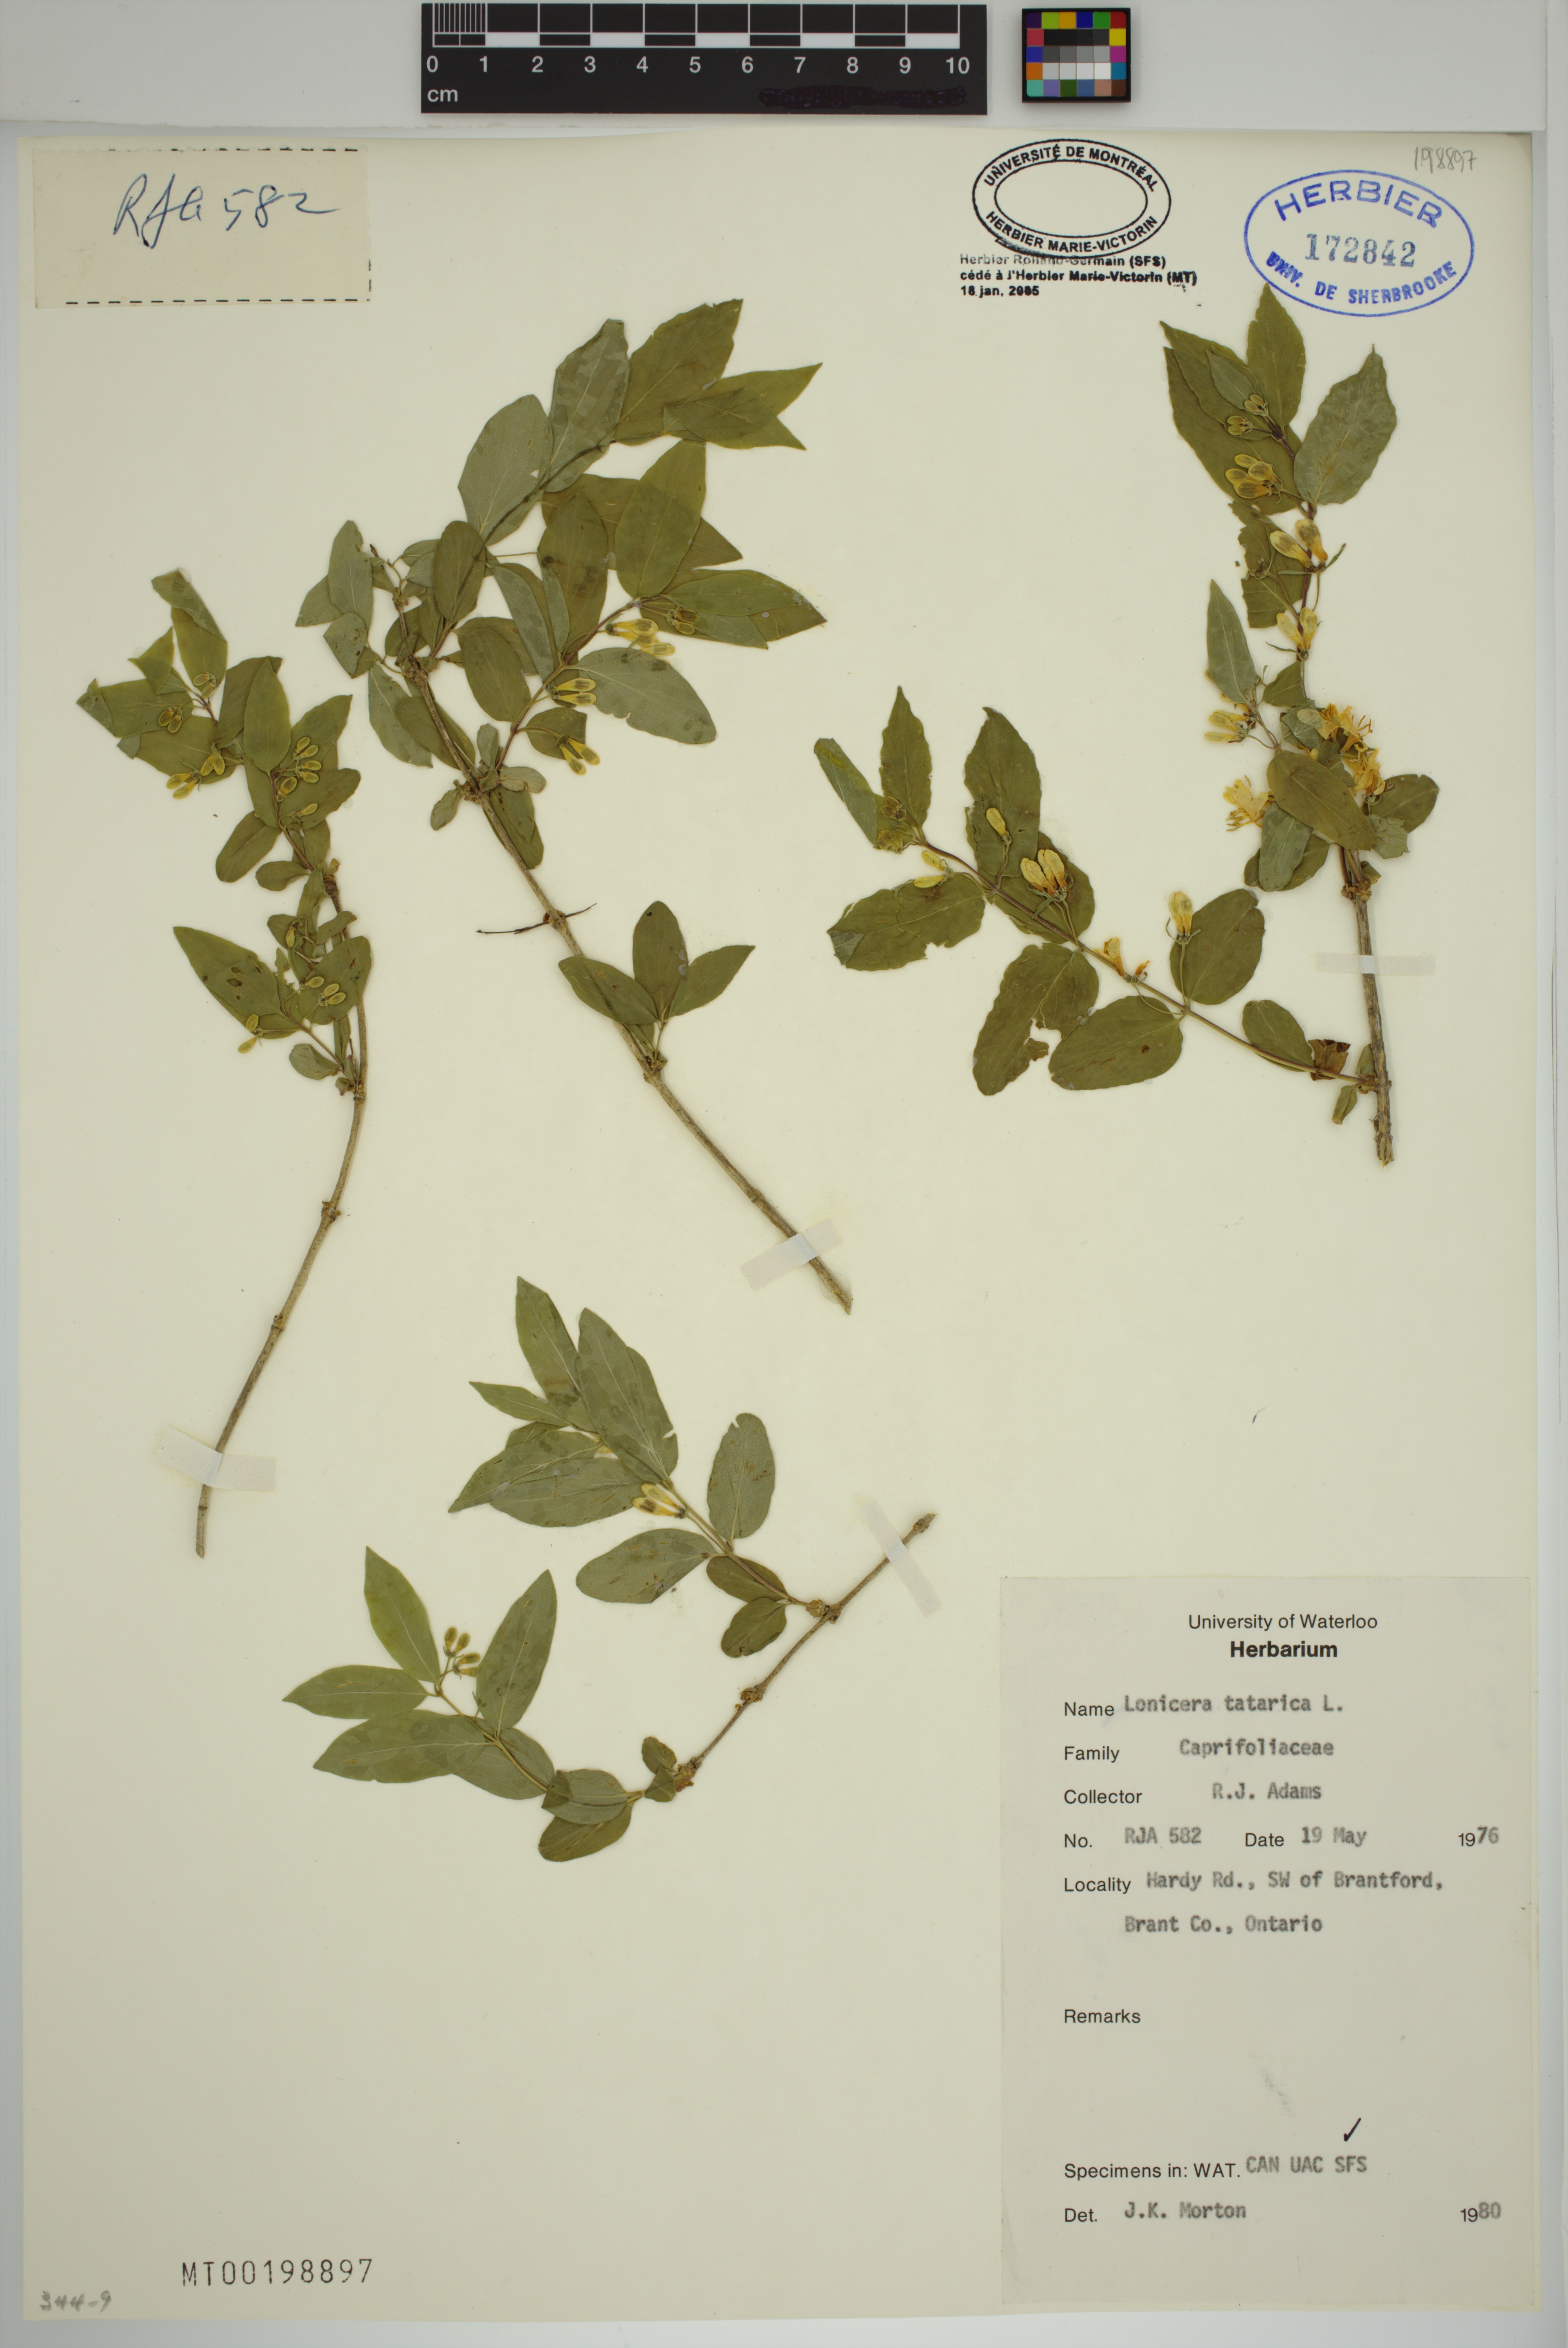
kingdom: Plantae
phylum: Tracheophyta
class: Magnoliopsida
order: Dipsacales
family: Caprifoliaceae
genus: Lonicera
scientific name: Lonicera ruprechtiana
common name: Manchurian honeysuckle
